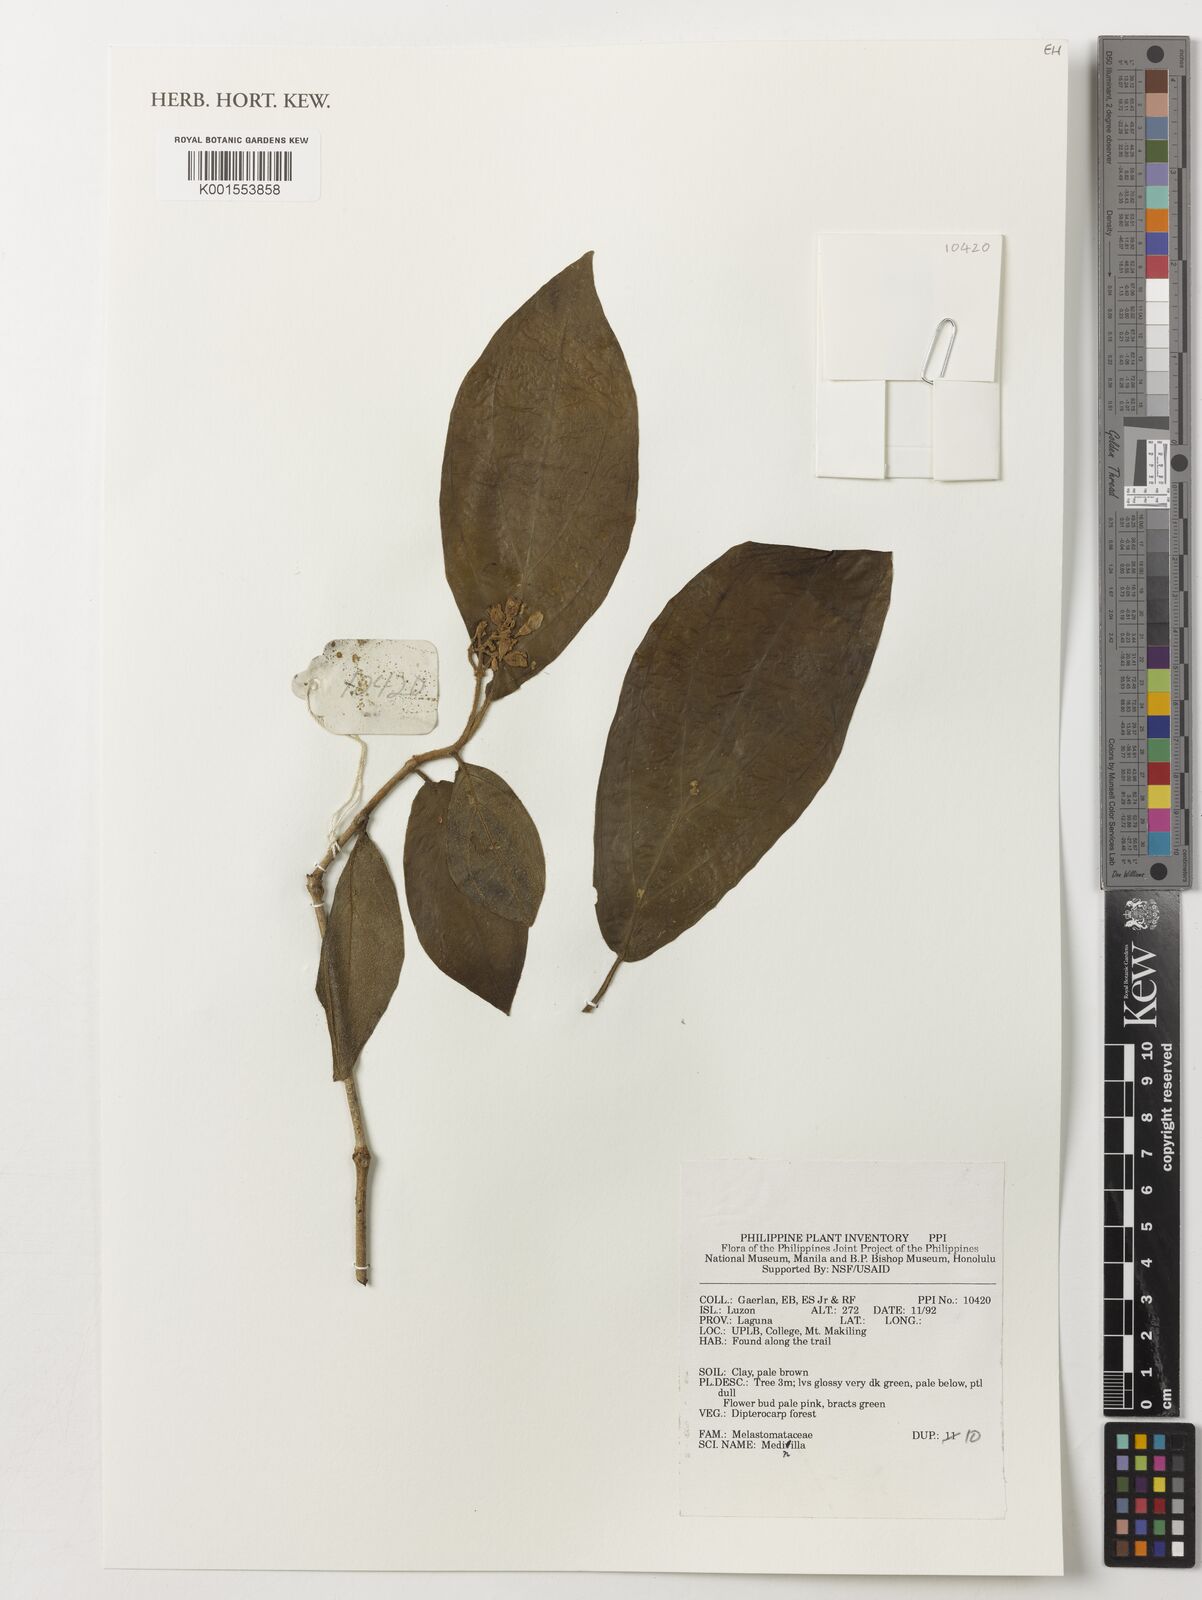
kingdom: Plantae
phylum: Tracheophyta
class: Magnoliopsida
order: Myrtales
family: Melastomataceae
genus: Medinilla
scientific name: Medinilla
